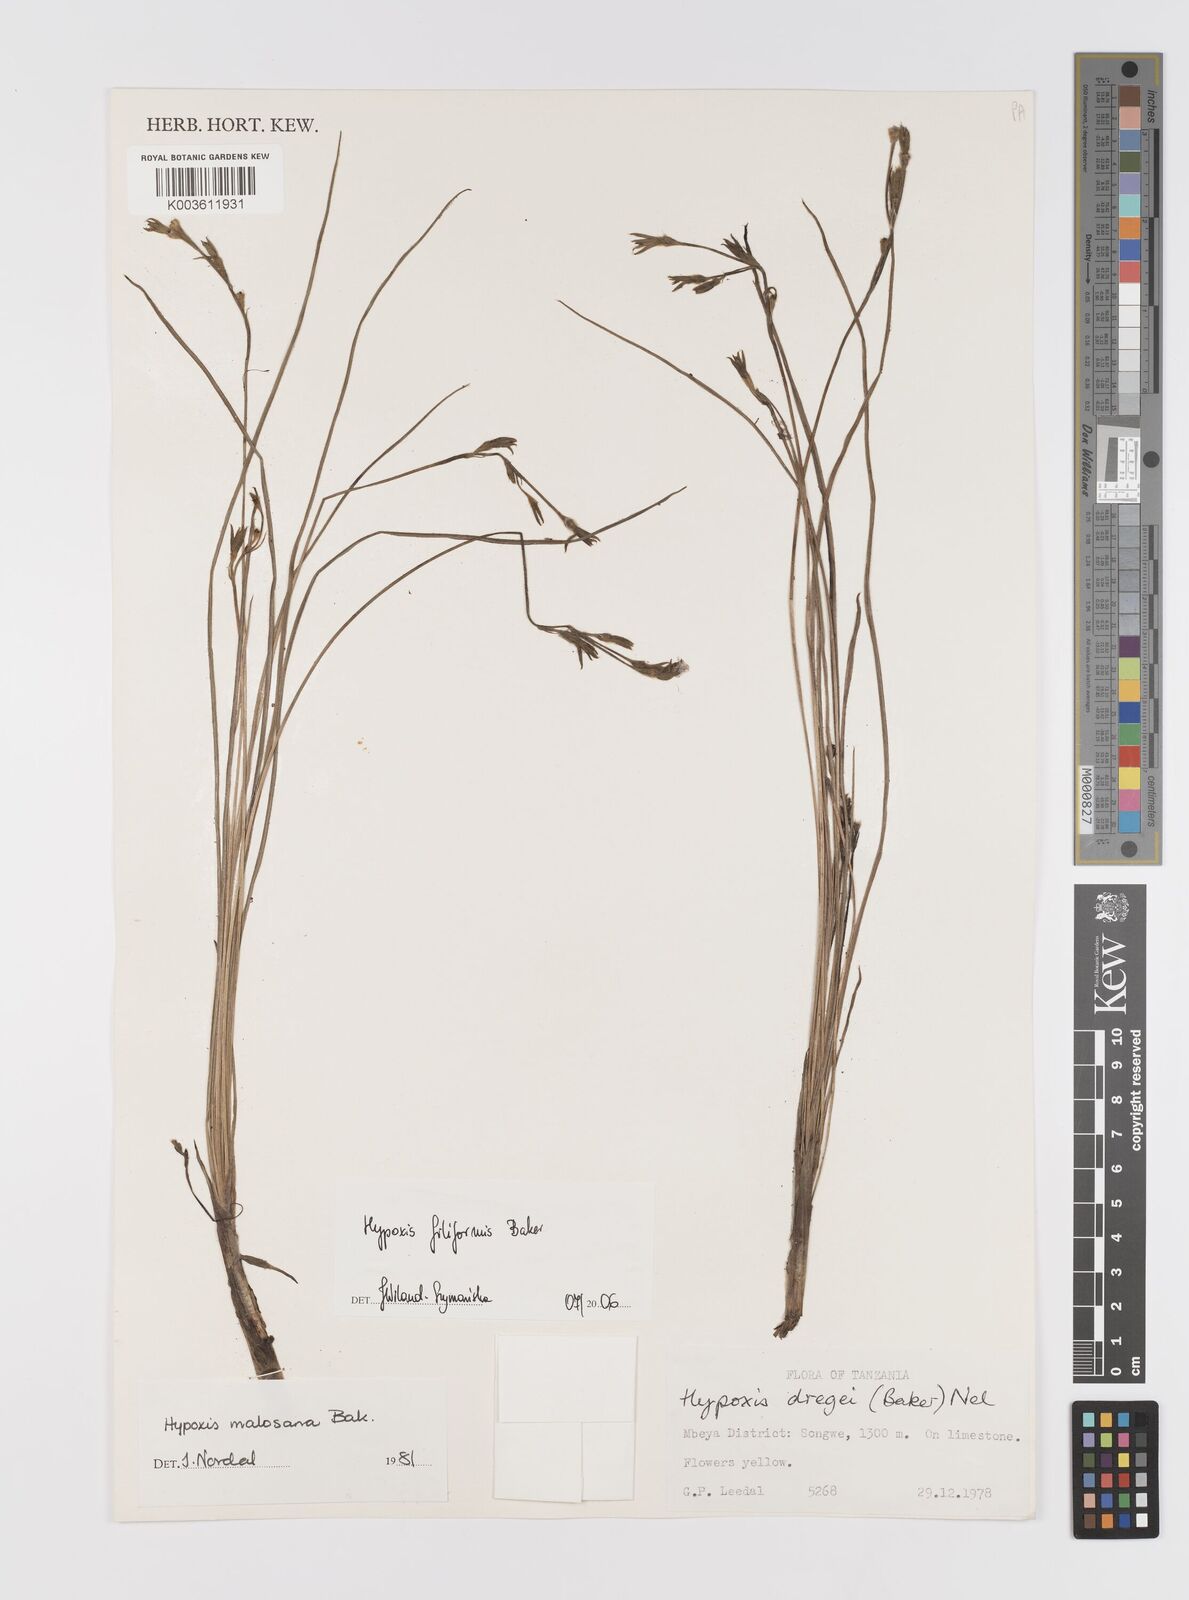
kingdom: Plantae
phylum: Tracheophyta
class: Liliopsida
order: Asparagales
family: Hypoxidaceae
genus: Hypoxis
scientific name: Hypoxis filiformis
